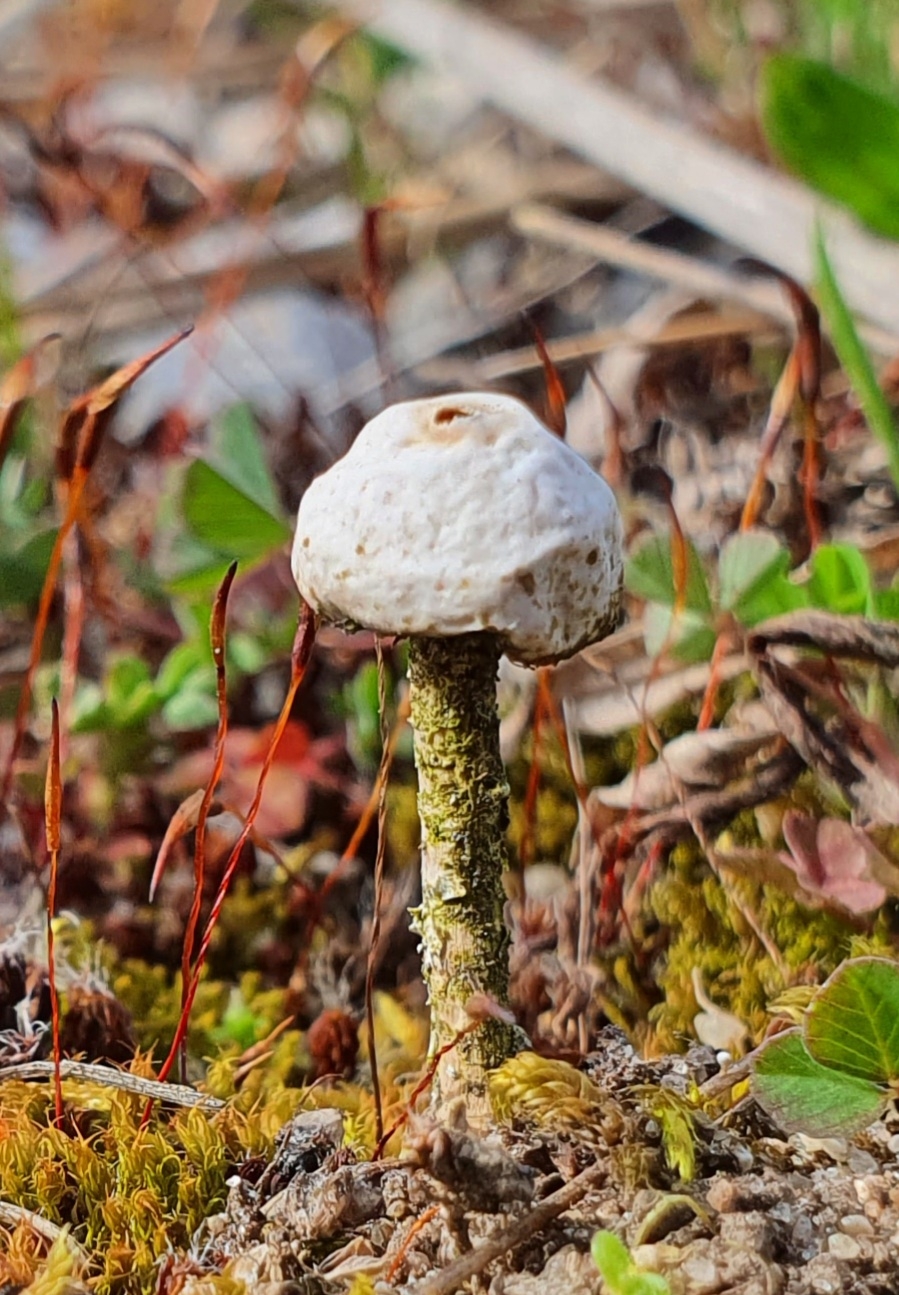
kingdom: Fungi
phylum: Basidiomycota
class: Agaricomycetes
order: Agaricales
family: Agaricaceae
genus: Tulostoma
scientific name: Tulostoma brumale
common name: vinter-stilkbovist
